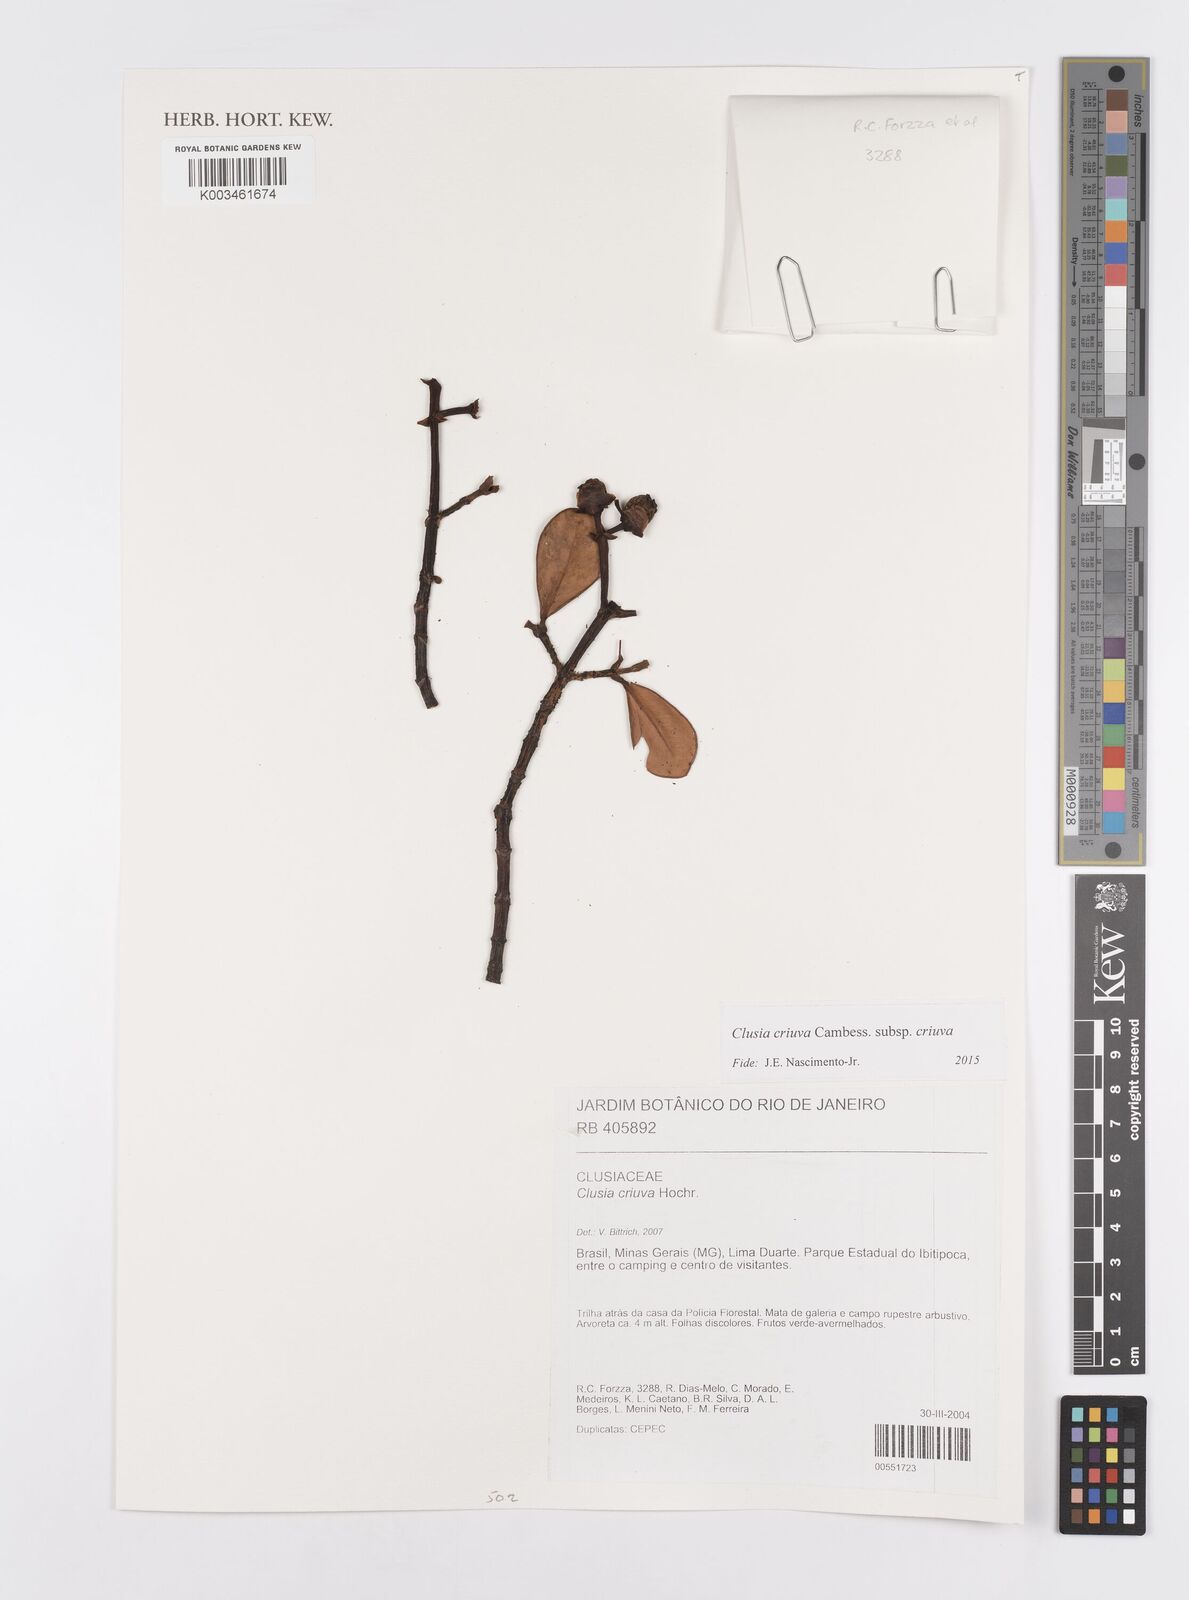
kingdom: Plantae
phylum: Tracheophyta
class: Magnoliopsida
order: Malpighiales
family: Clusiaceae
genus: Clusia
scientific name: Clusia criuva
